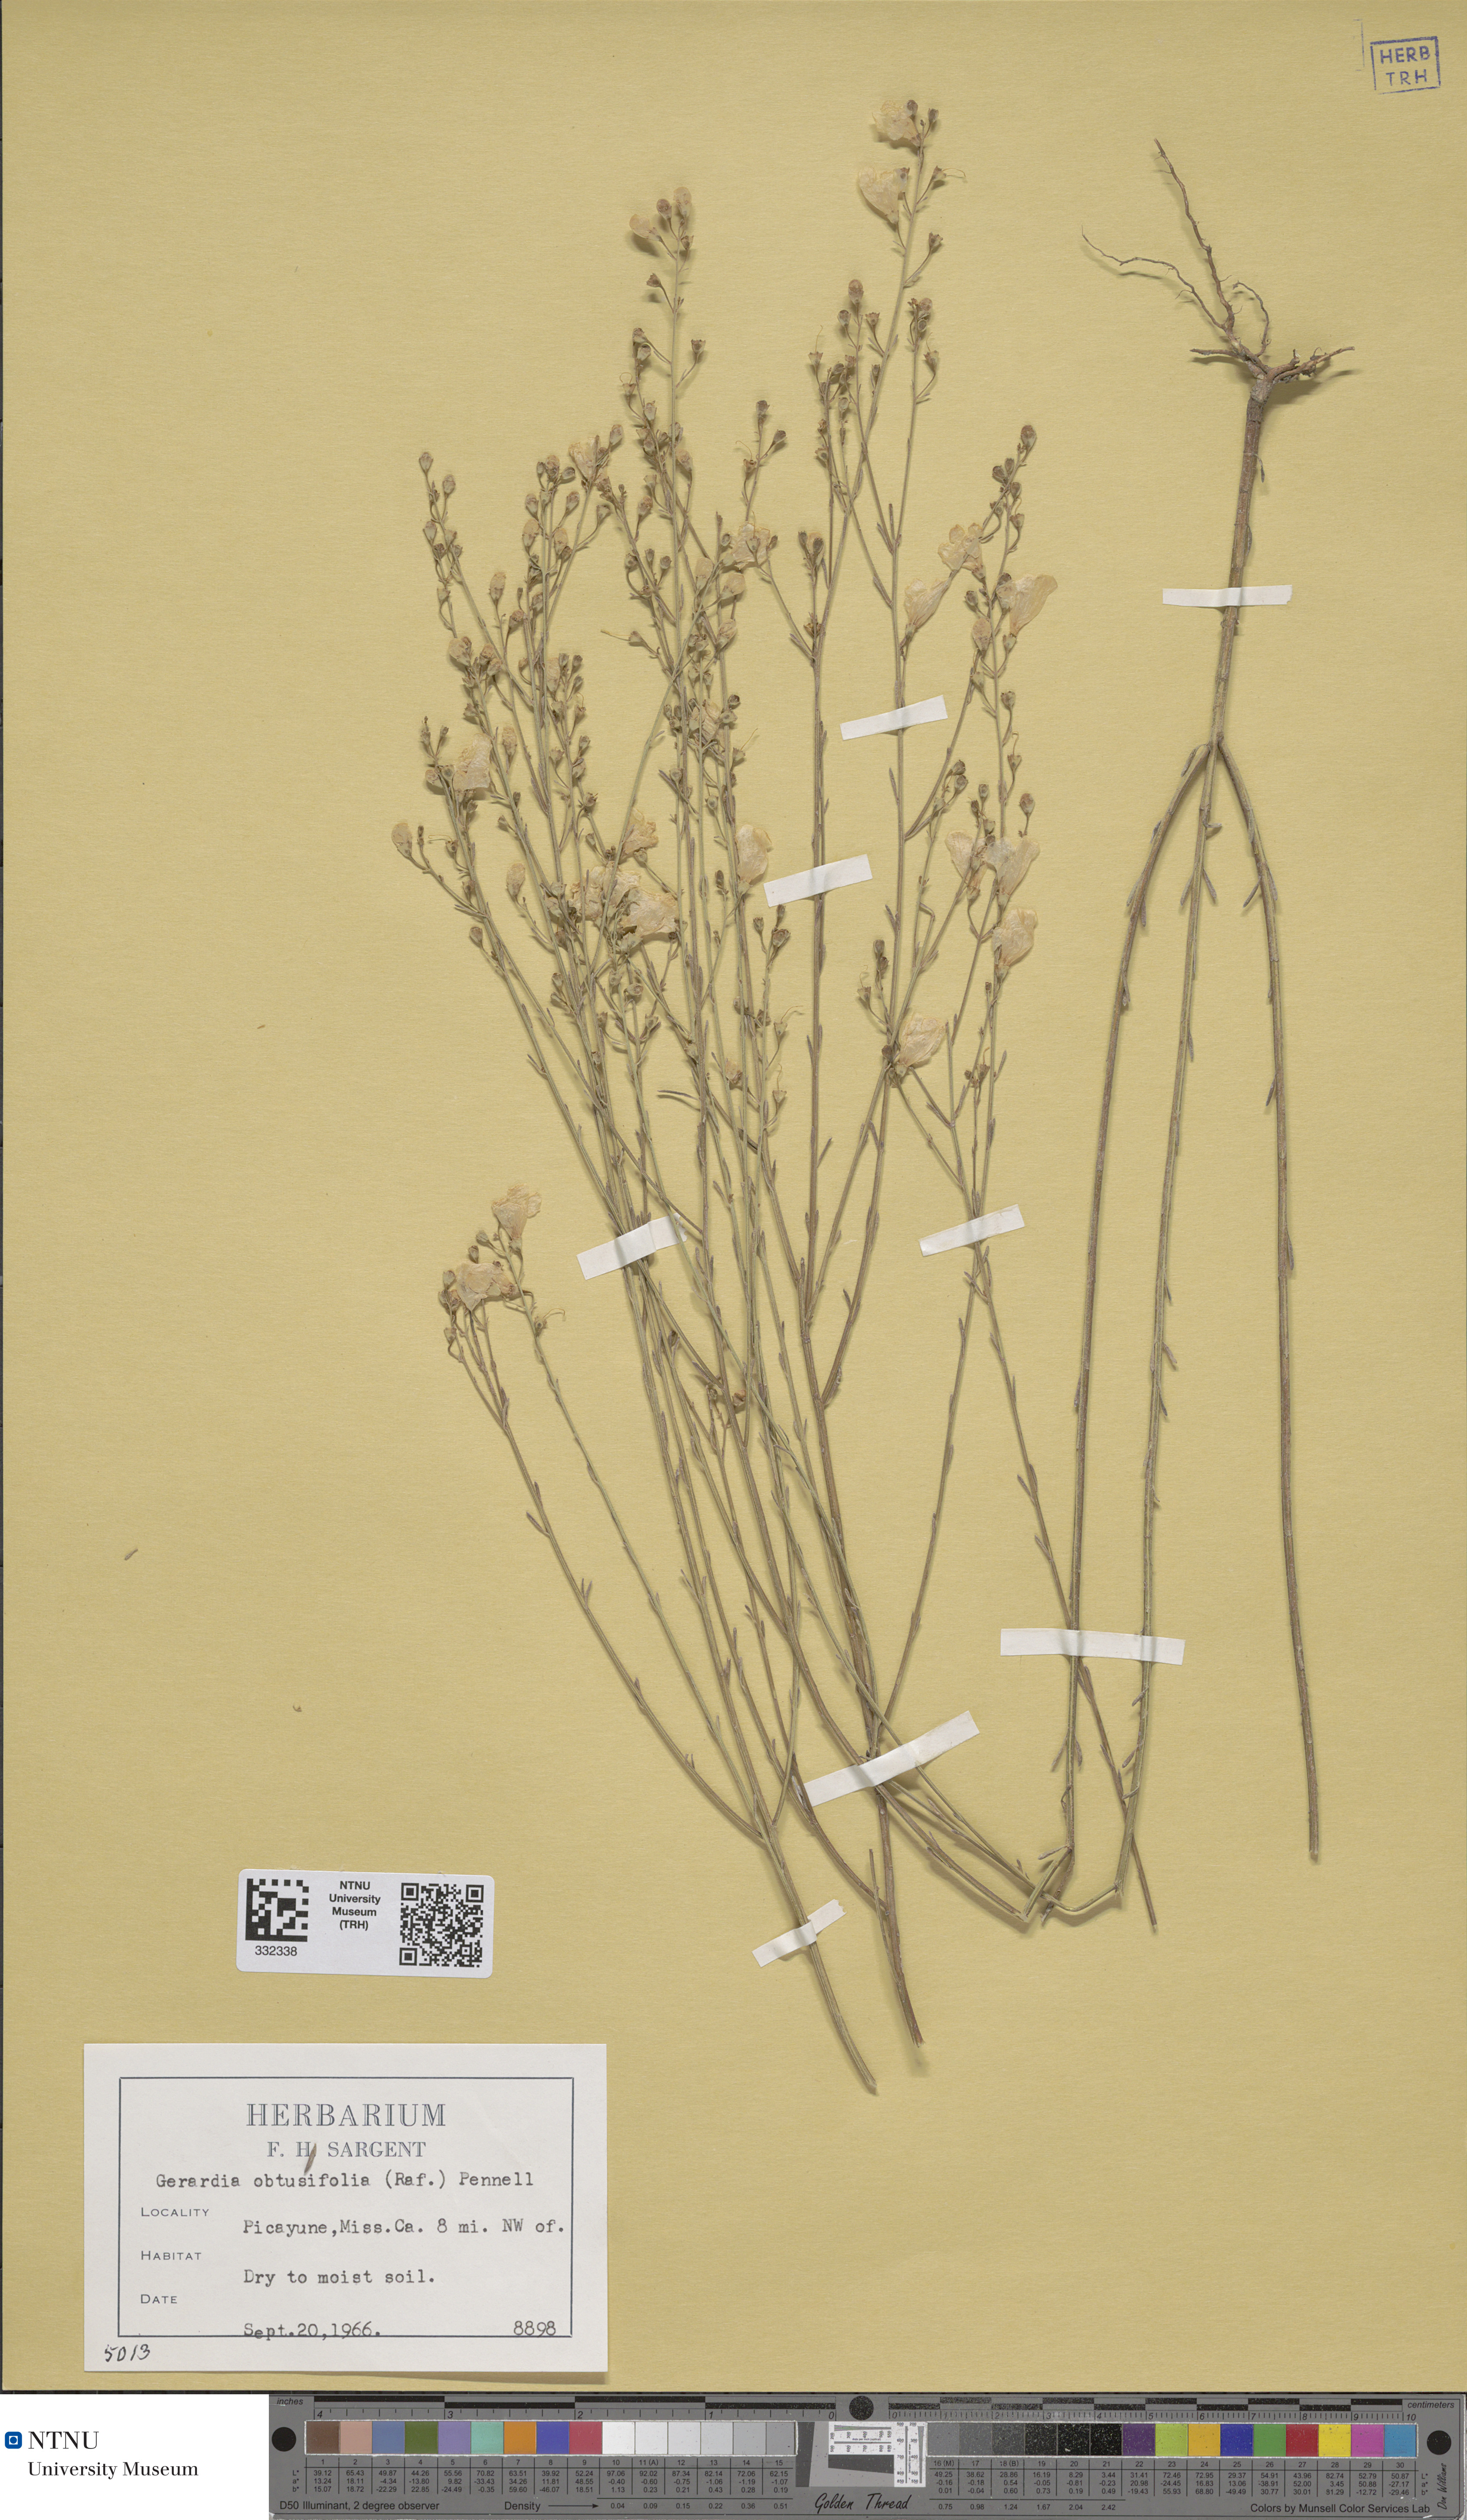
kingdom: Plantae
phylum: Tracheophyta
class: Magnoliopsida
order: Lamiales
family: Orobanchaceae
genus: Agalinis
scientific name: Agalinis obtusifolia
